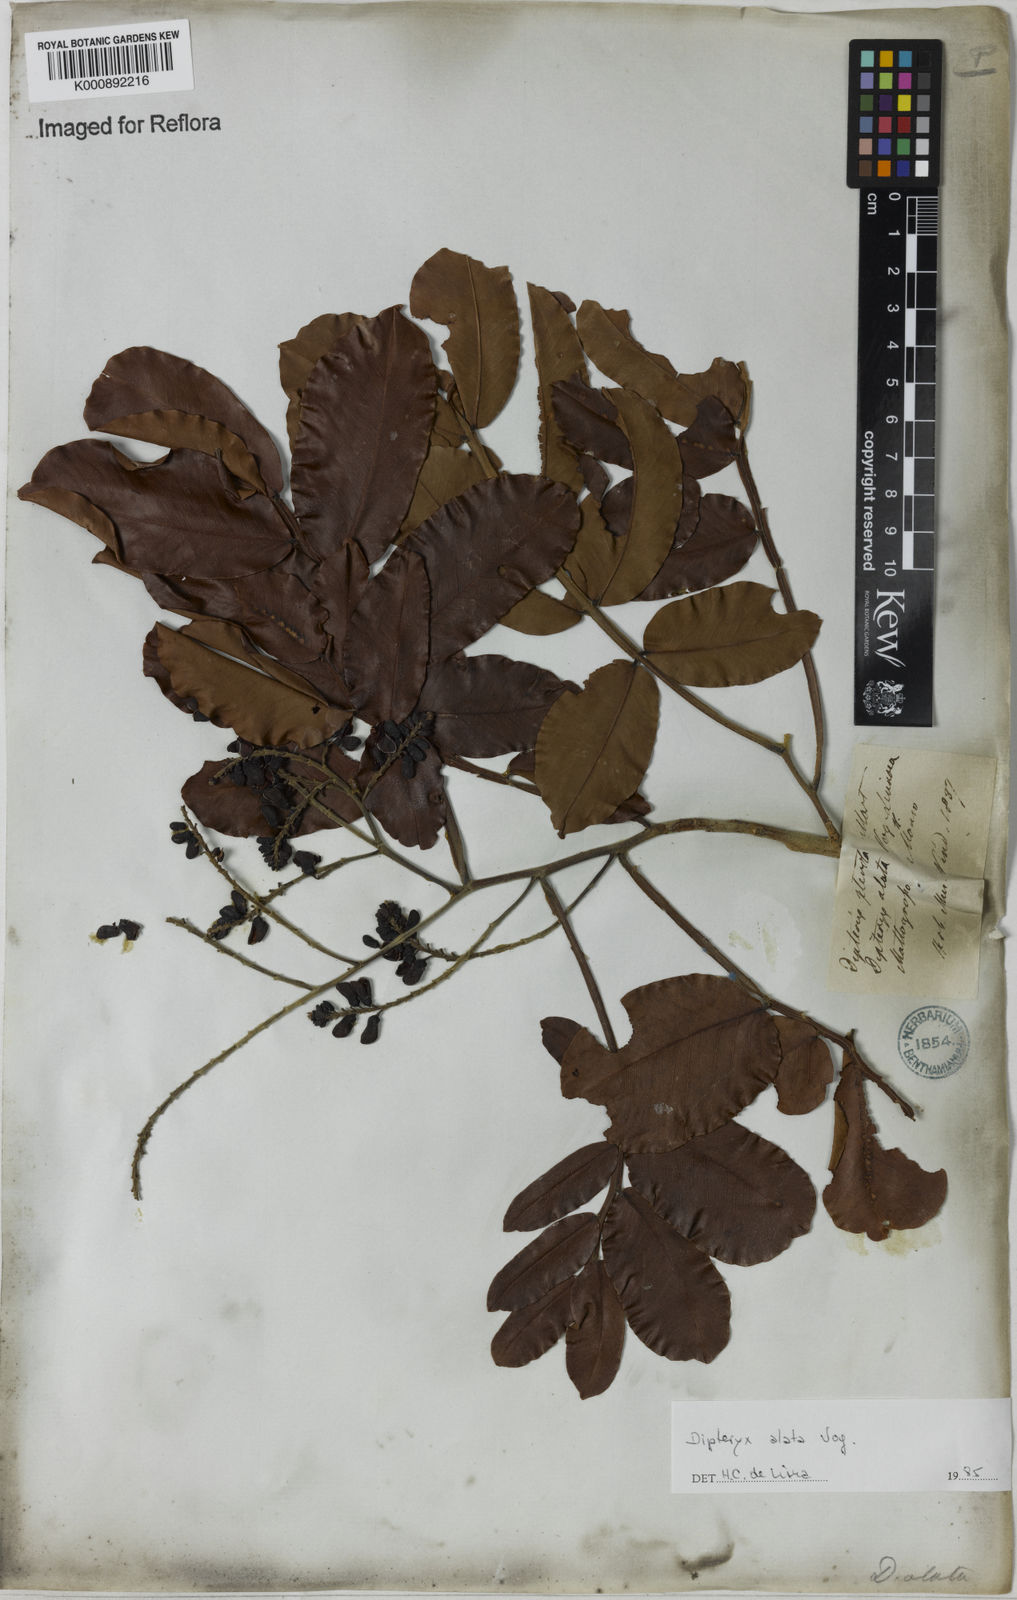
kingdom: Plantae
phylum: Tracheophyta
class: Magnoliopsida
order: Fabales
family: Fabaceae
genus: Dipteryx
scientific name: Dipteryx alata
